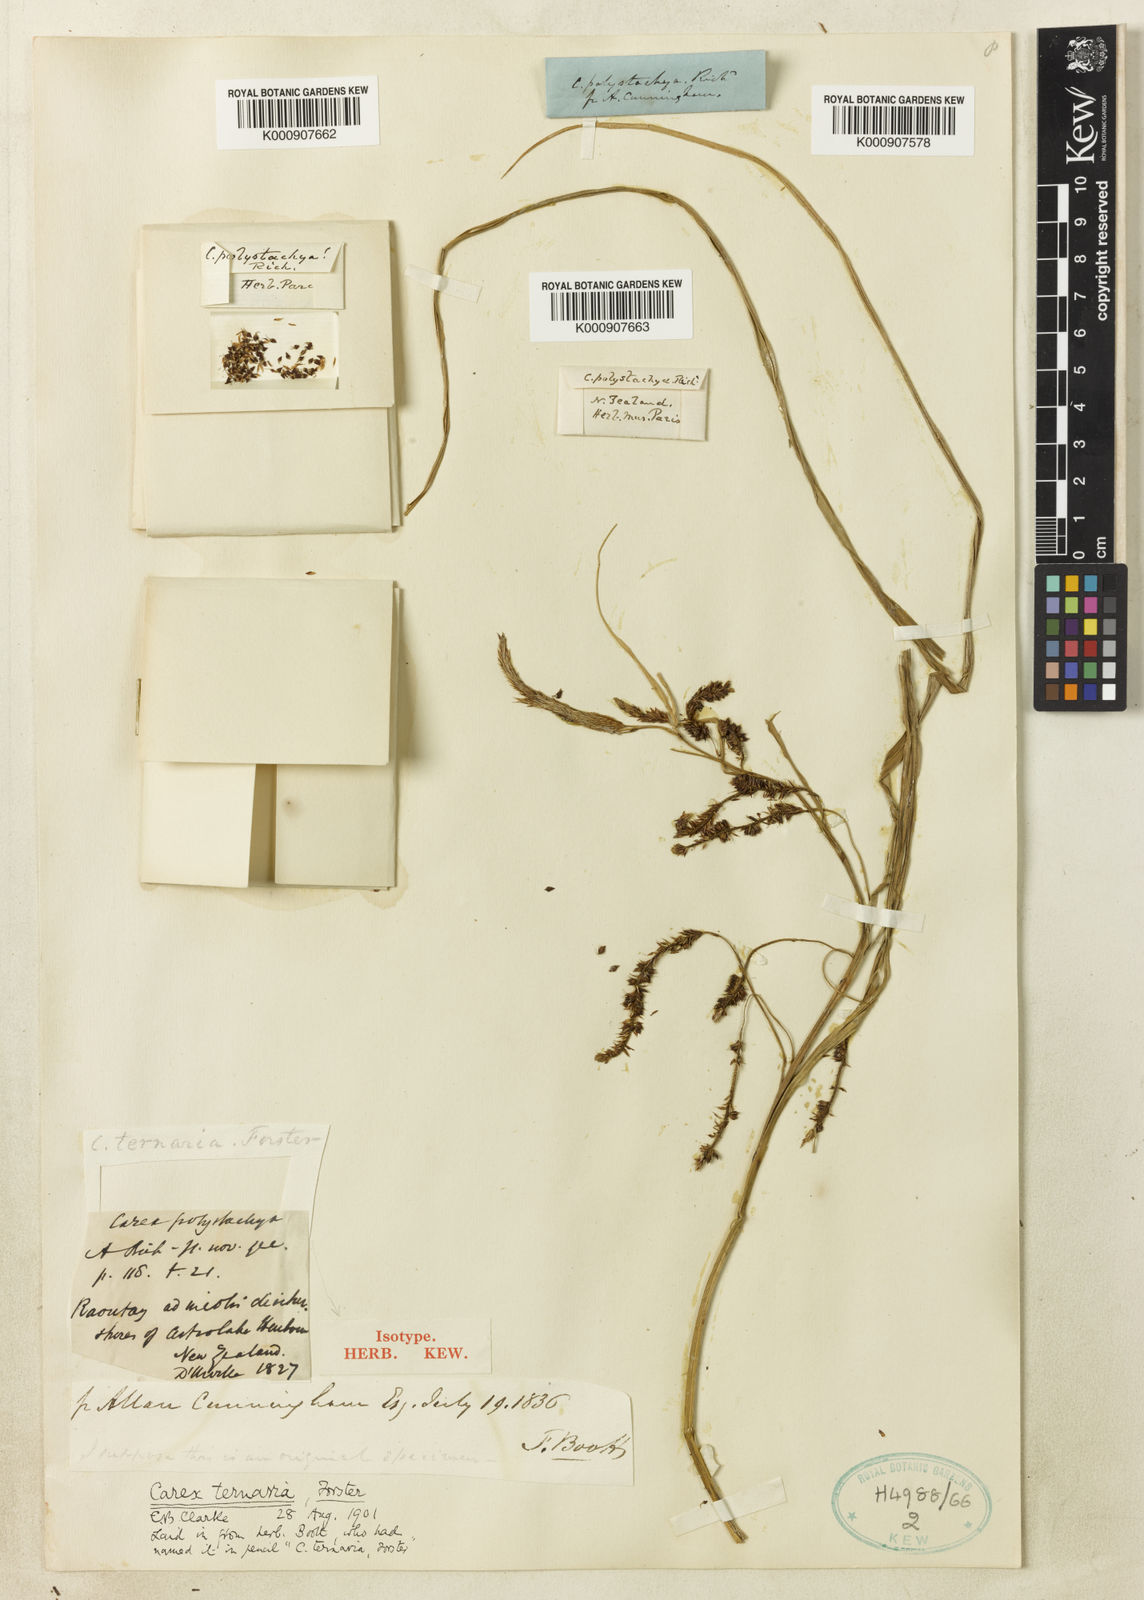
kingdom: Plantae
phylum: Tracheophyta
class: Liliopsida
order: Poales
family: Cyperaceae
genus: Carex
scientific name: Carex lessoniana
